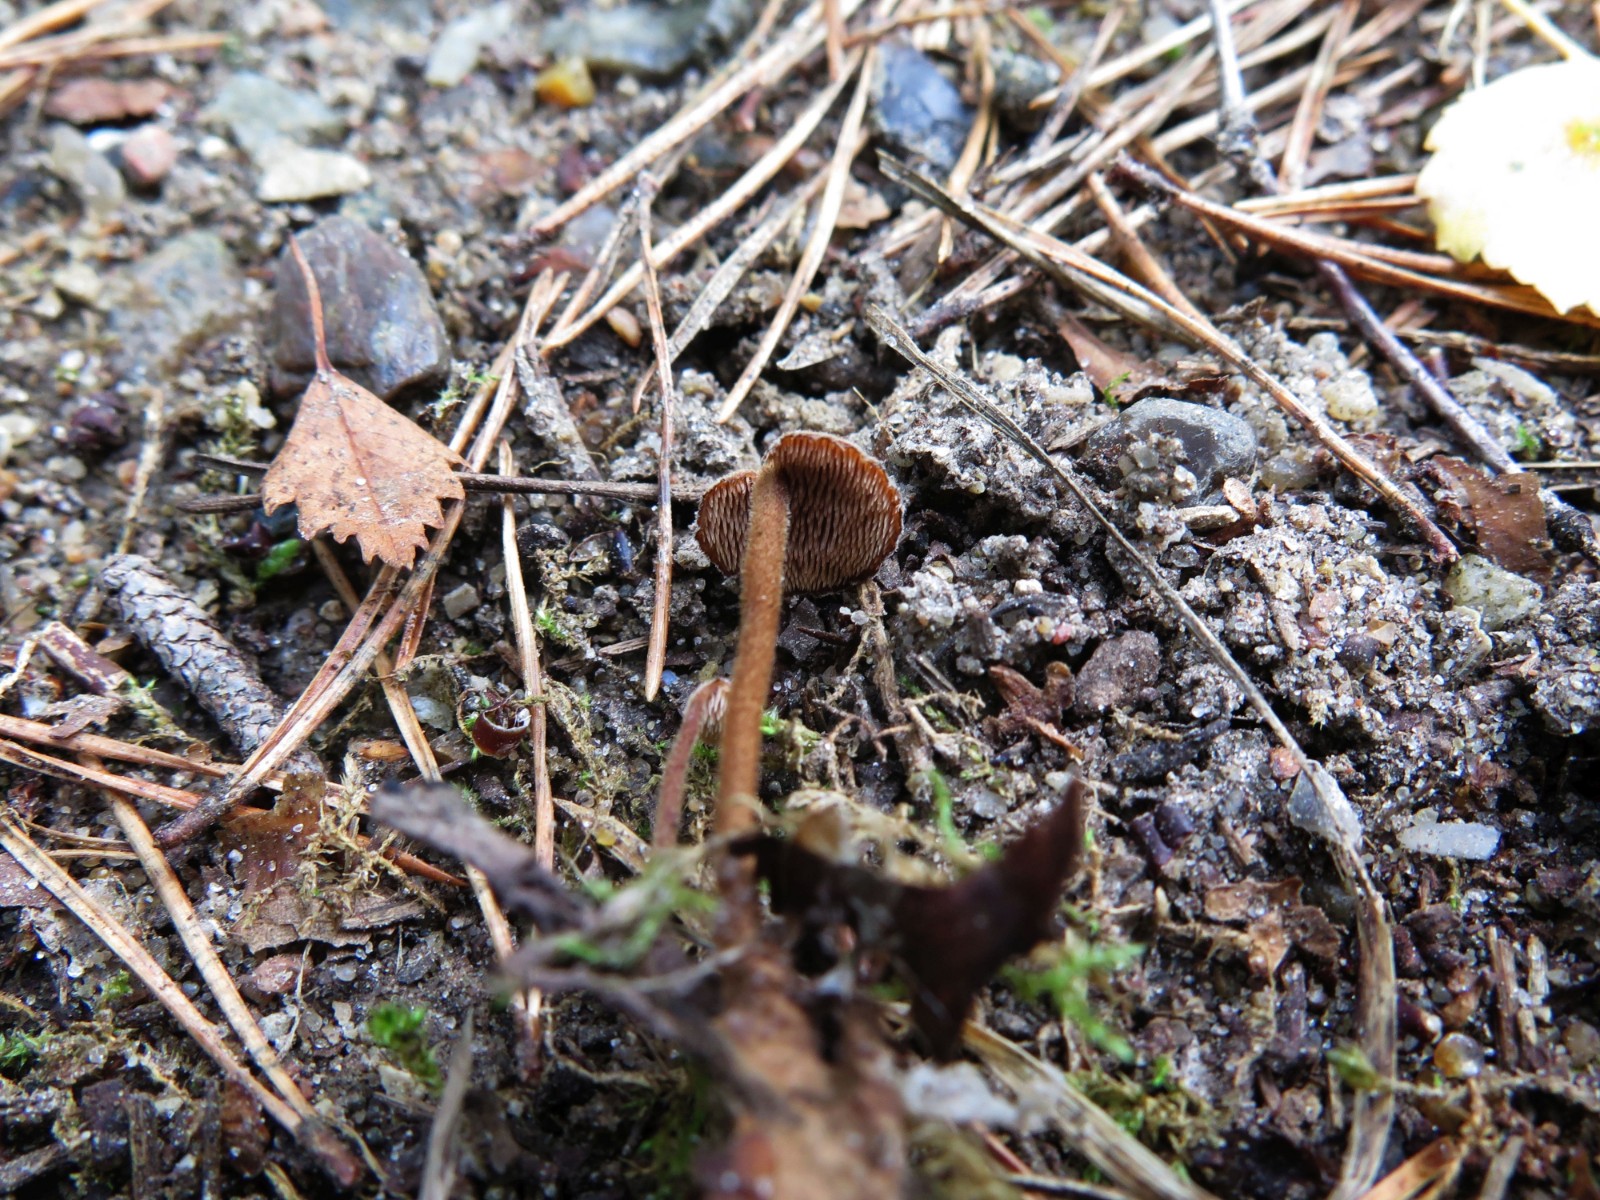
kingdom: Fungi
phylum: Basidiomycota
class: Agaricomycetes
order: Russulales
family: Auriscalpiaceae
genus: Auriscalpium
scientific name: Auriscalpium vulgare
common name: koglepigsvamp
